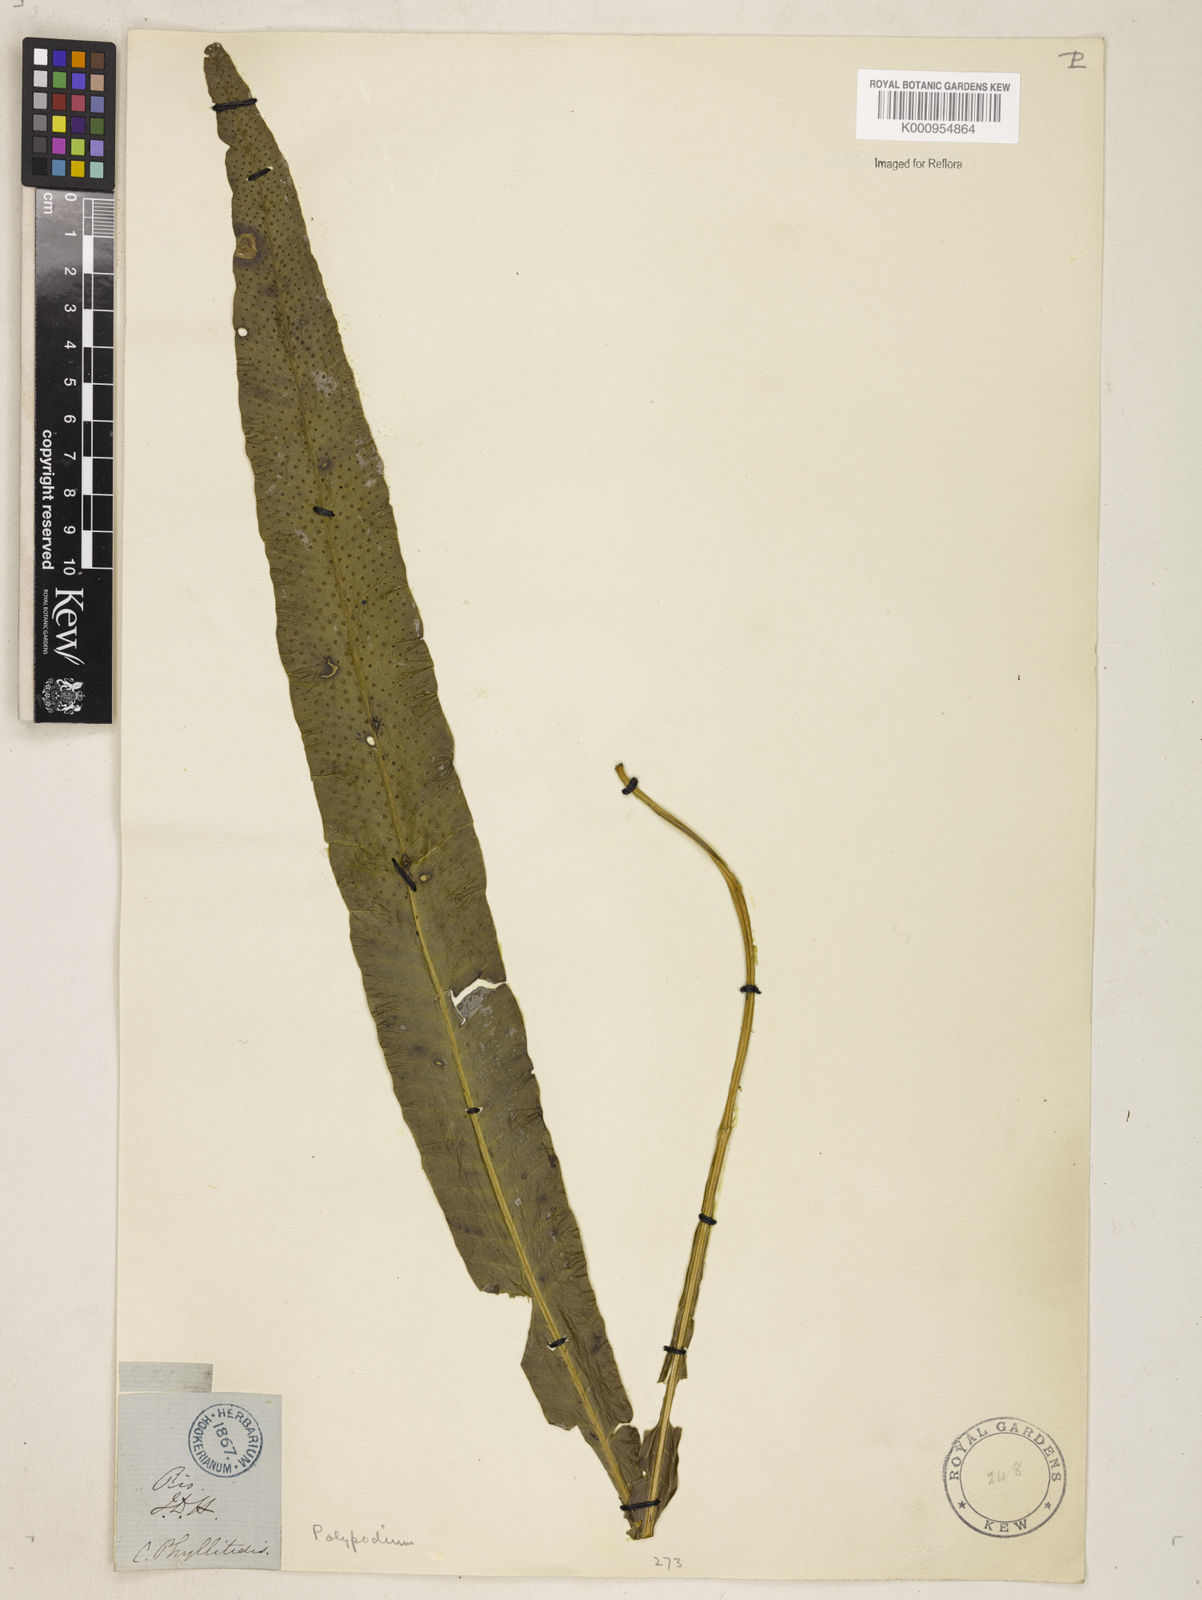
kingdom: Plantae
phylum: Tracheophyta
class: Polypodiopsida
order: Polypodiales
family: Polypodiaceae
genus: Campyloneurum
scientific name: Campyloneurum phyllitidis
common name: Cow-tongue fern
